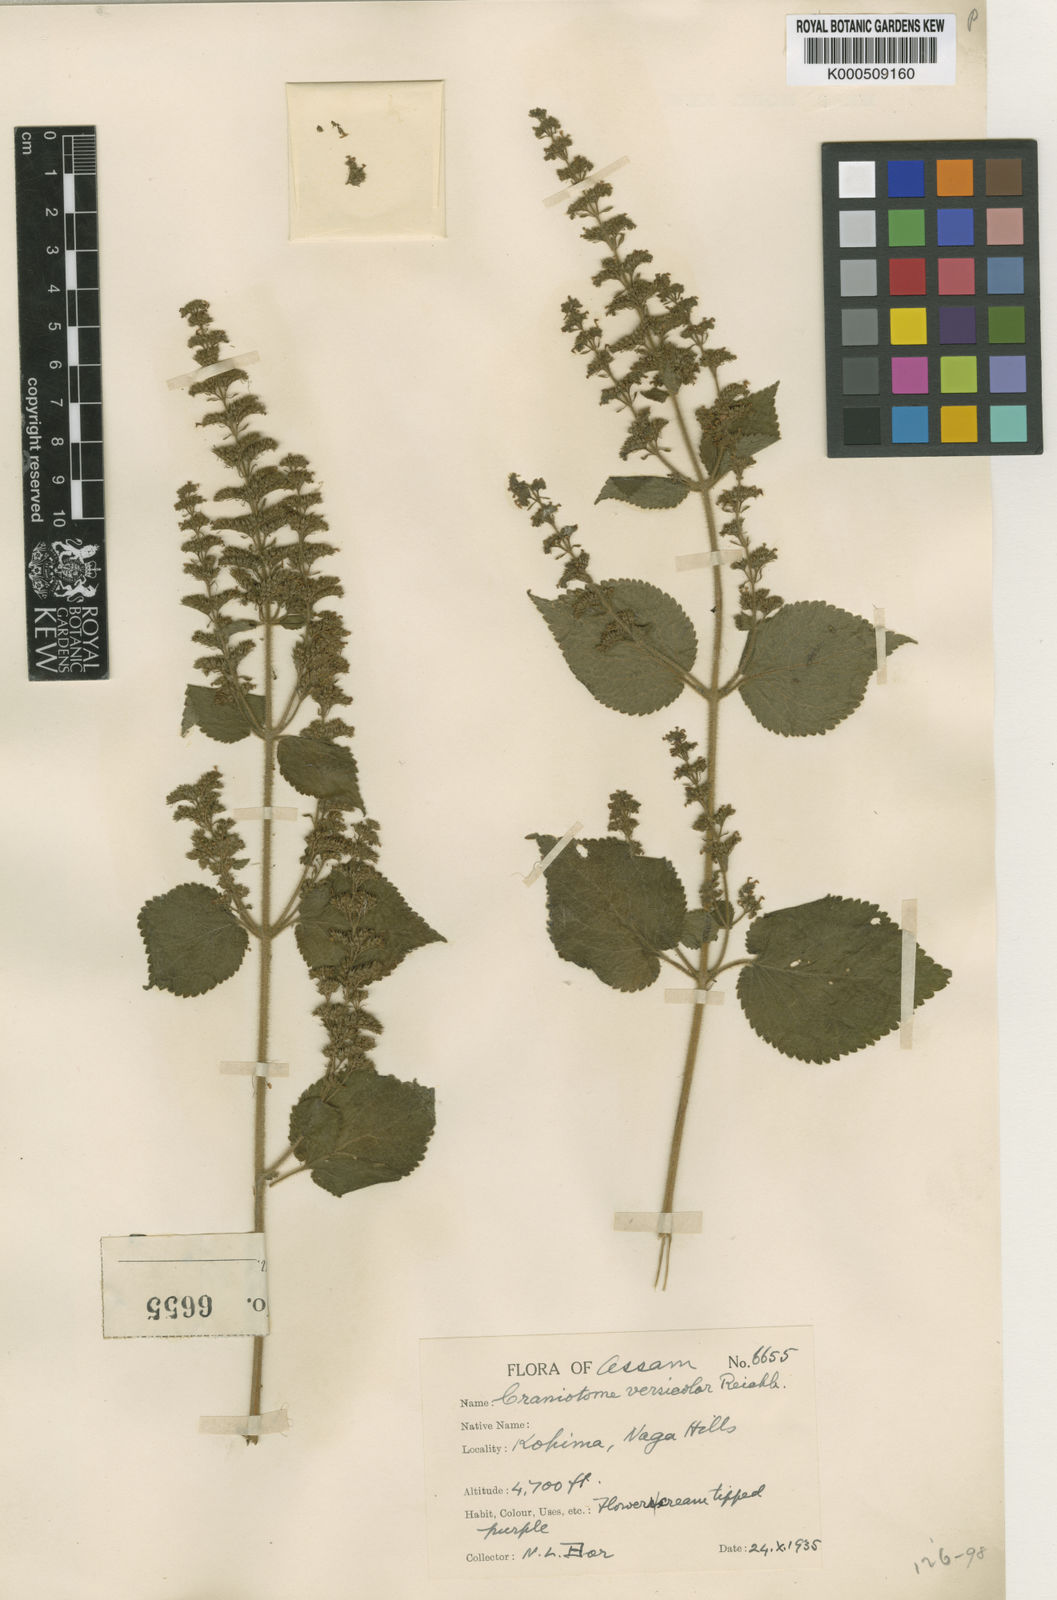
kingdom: Plantae
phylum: Tracheophyta
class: Magnoliopsida
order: Lamiales
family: Lamiaceae
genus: Craniotome
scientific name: Craniotome furcata
